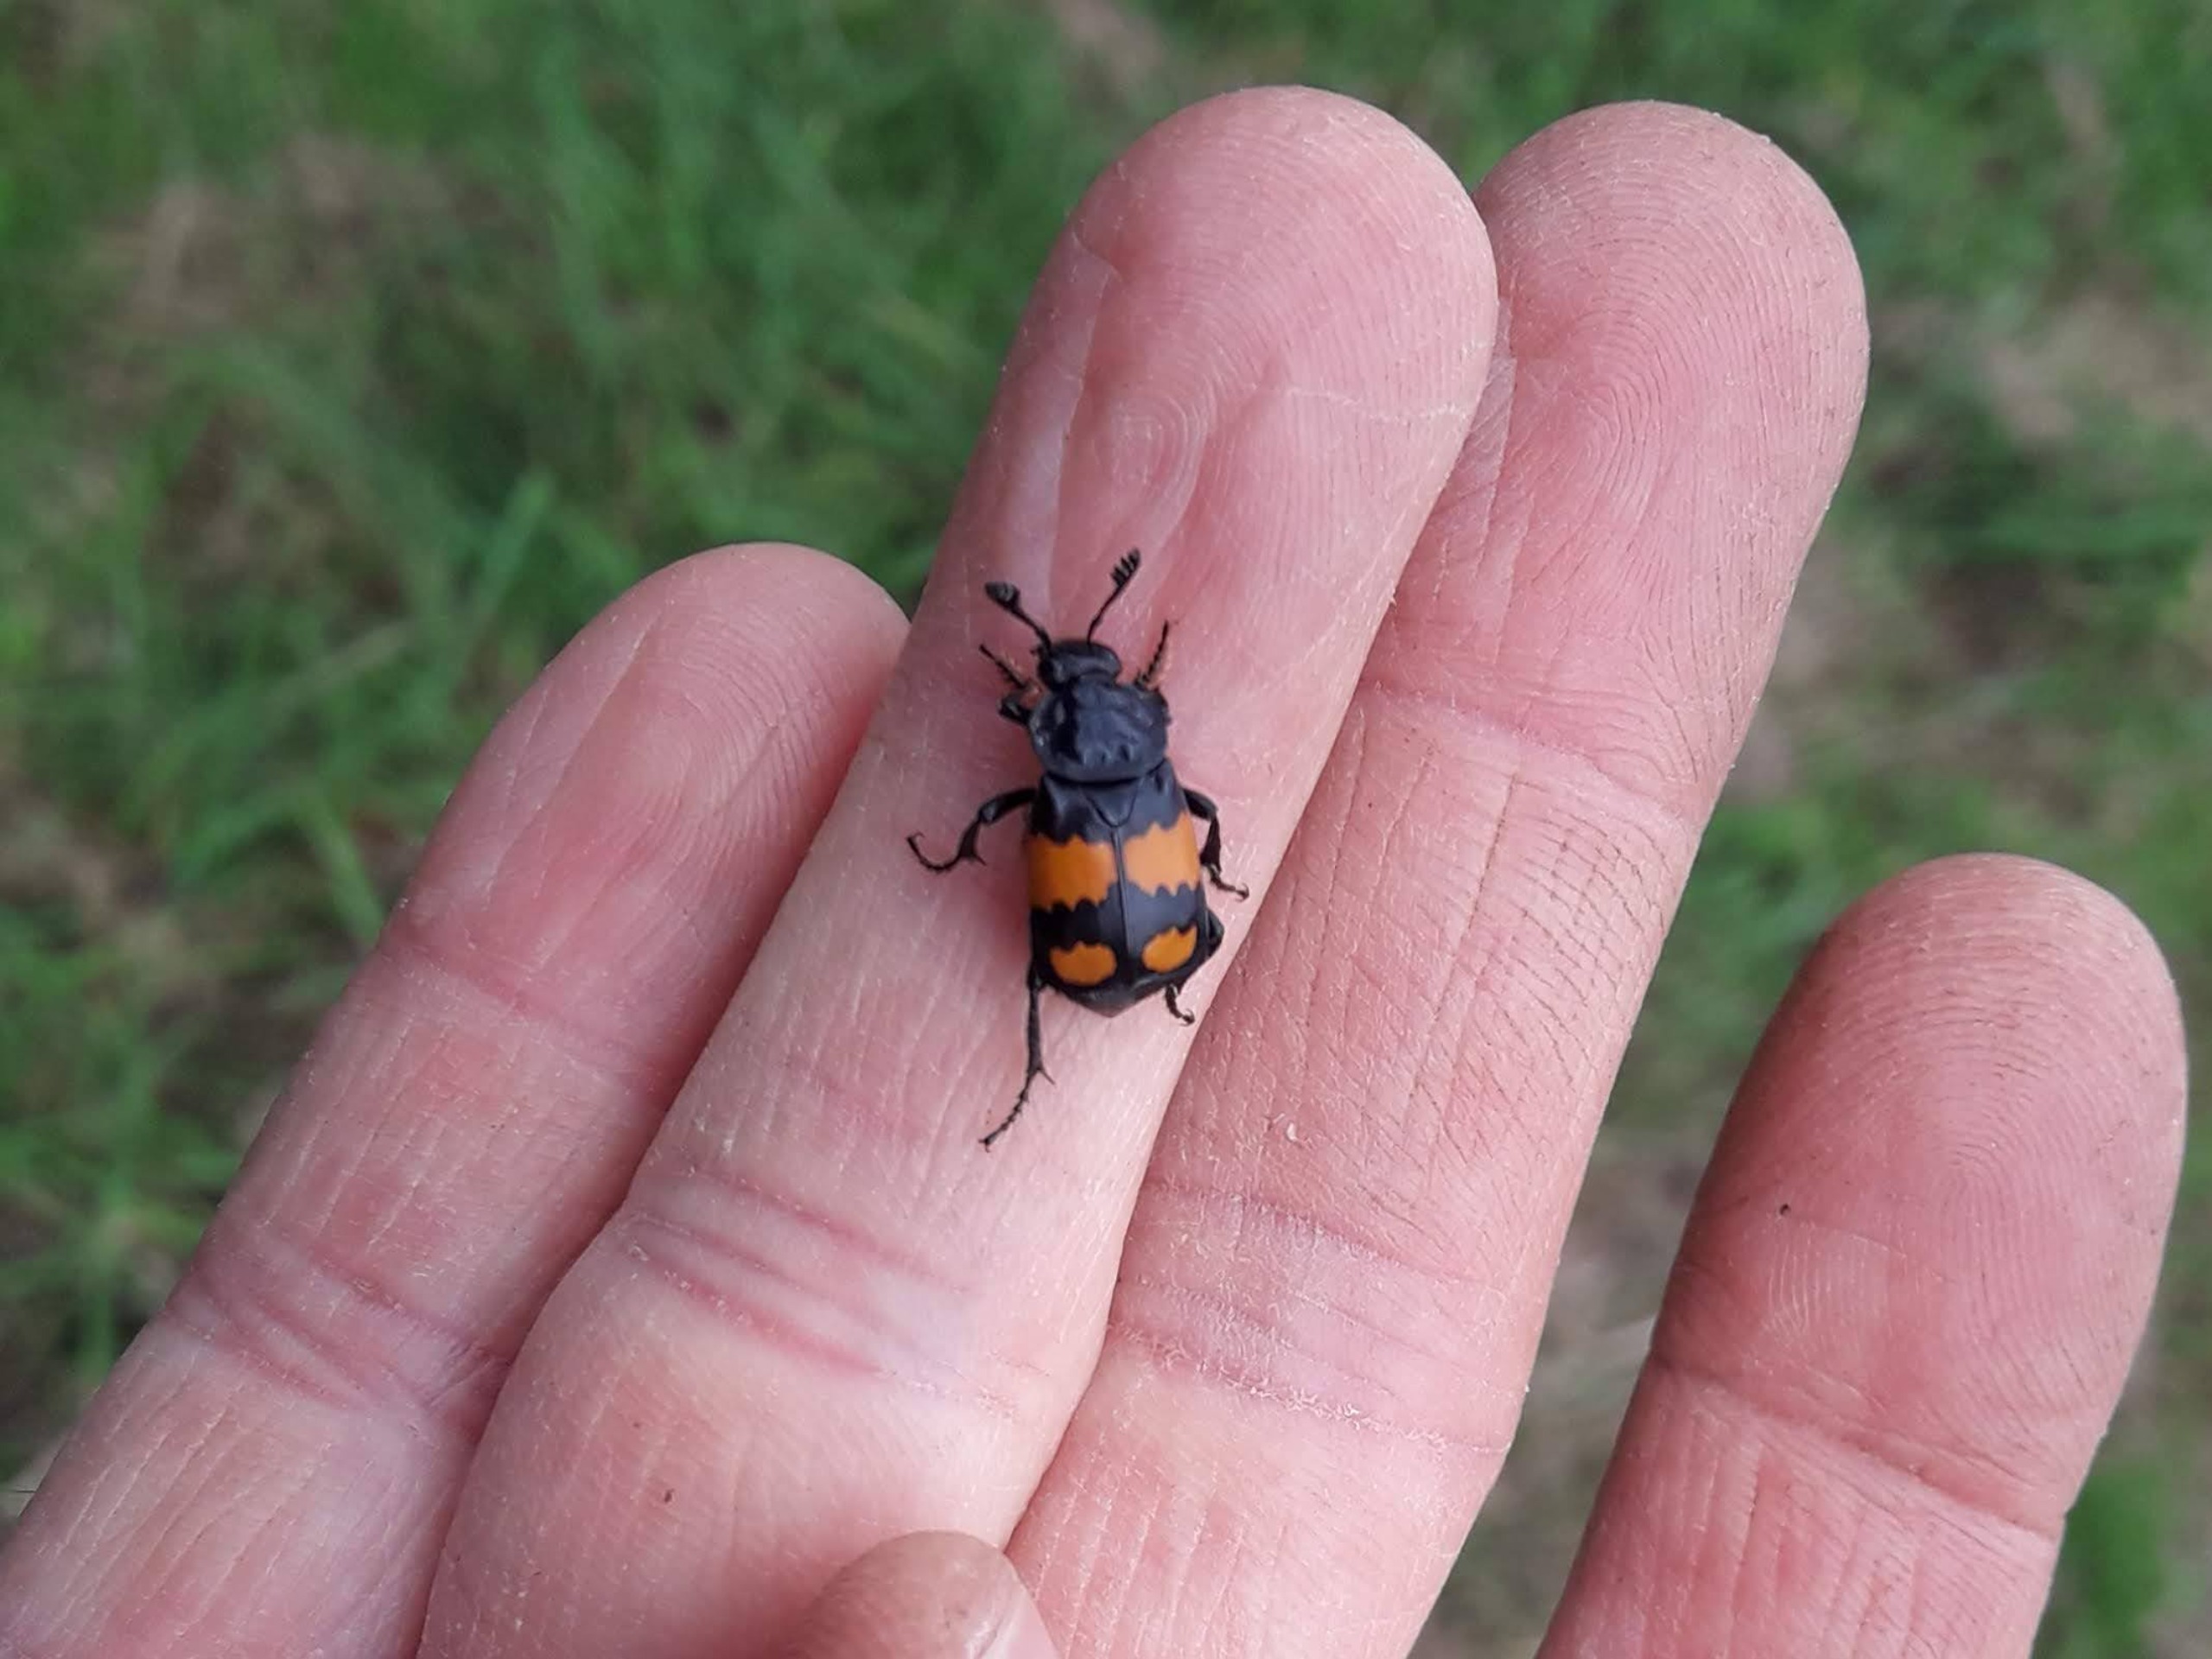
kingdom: Animalia
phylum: Arthropoda
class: Insecta
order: Coleoptera
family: Staphylinidae
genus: Nicrophorus
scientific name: Nicrophorus vespilloides
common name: Sortkøllet ådselgraver
